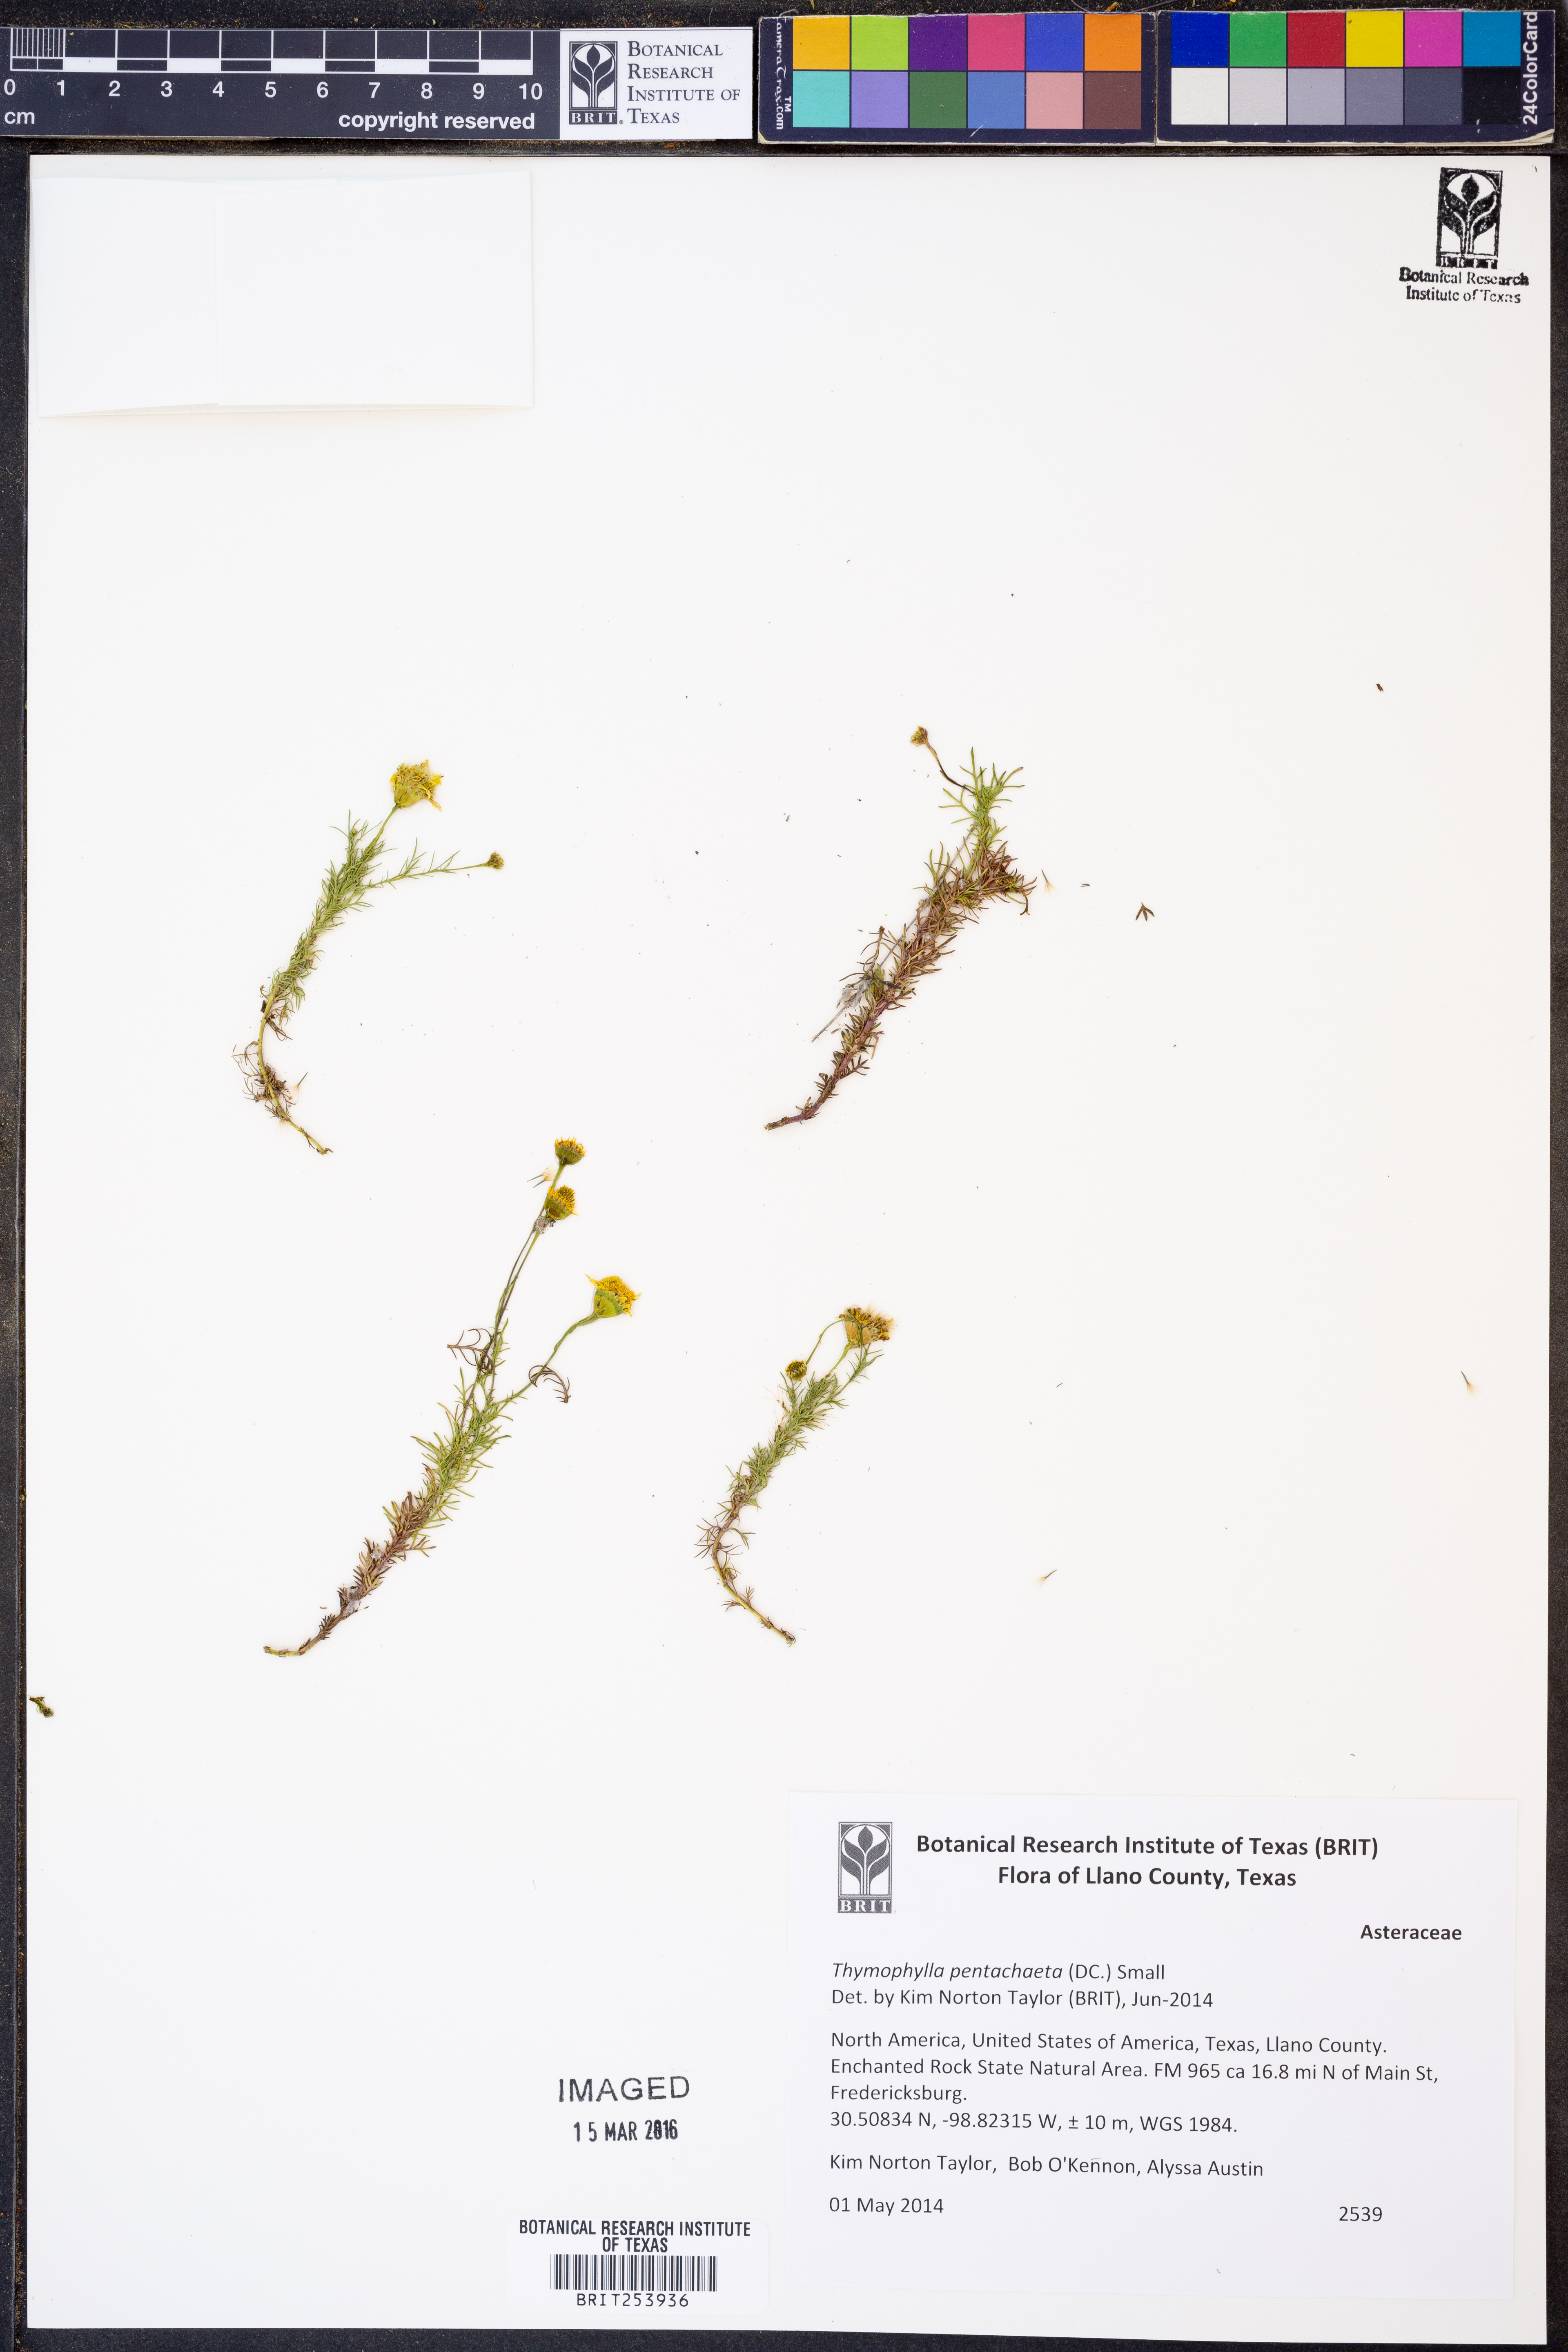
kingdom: Plantae
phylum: Tracheophyta
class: Magnoliopsida
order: Asterales
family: Asteraceae
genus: Thymophylla
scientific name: Thymophylla pentachaeta
